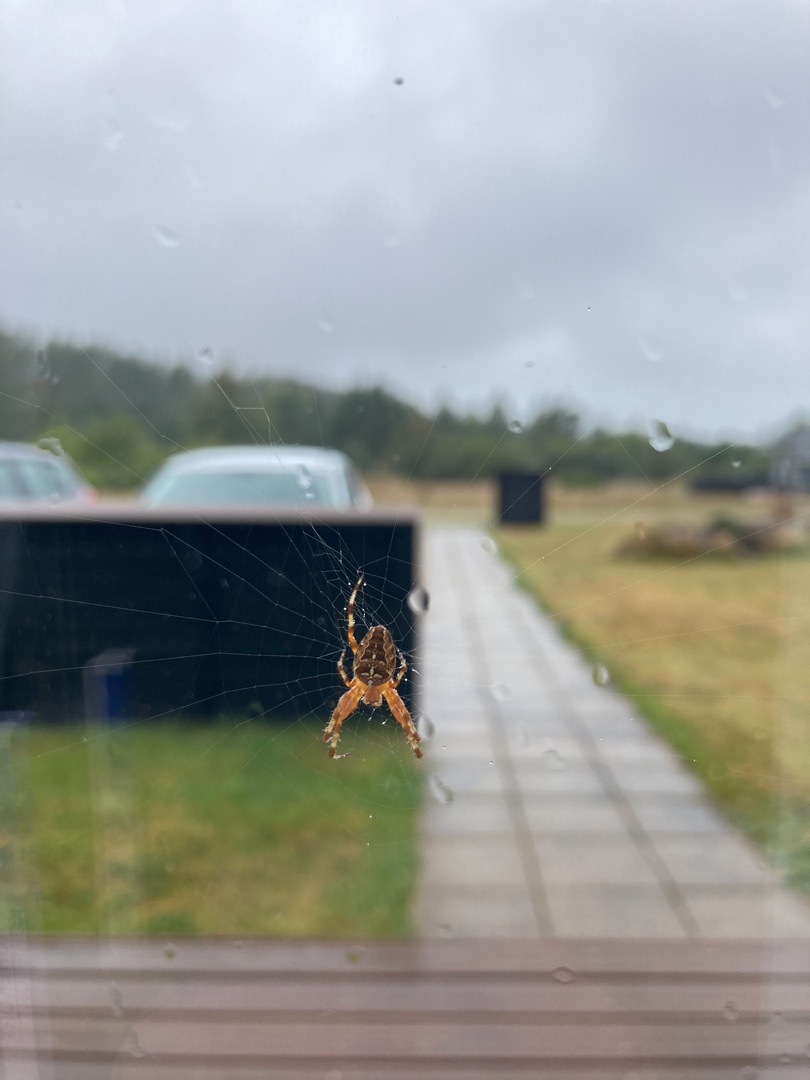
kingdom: Animalia
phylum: Arthropoda
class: Arachnida
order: Araneae
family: Araneidae
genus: Araneus
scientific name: Araneus diadematus
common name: Korsedderkop
